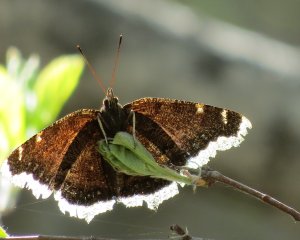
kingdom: Animalia
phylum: Arthropoda
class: Insecta
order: Lepidoptera
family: Nymphalidae
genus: Nymphalis
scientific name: Nymphalis antiopa
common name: Mourning Cloak
